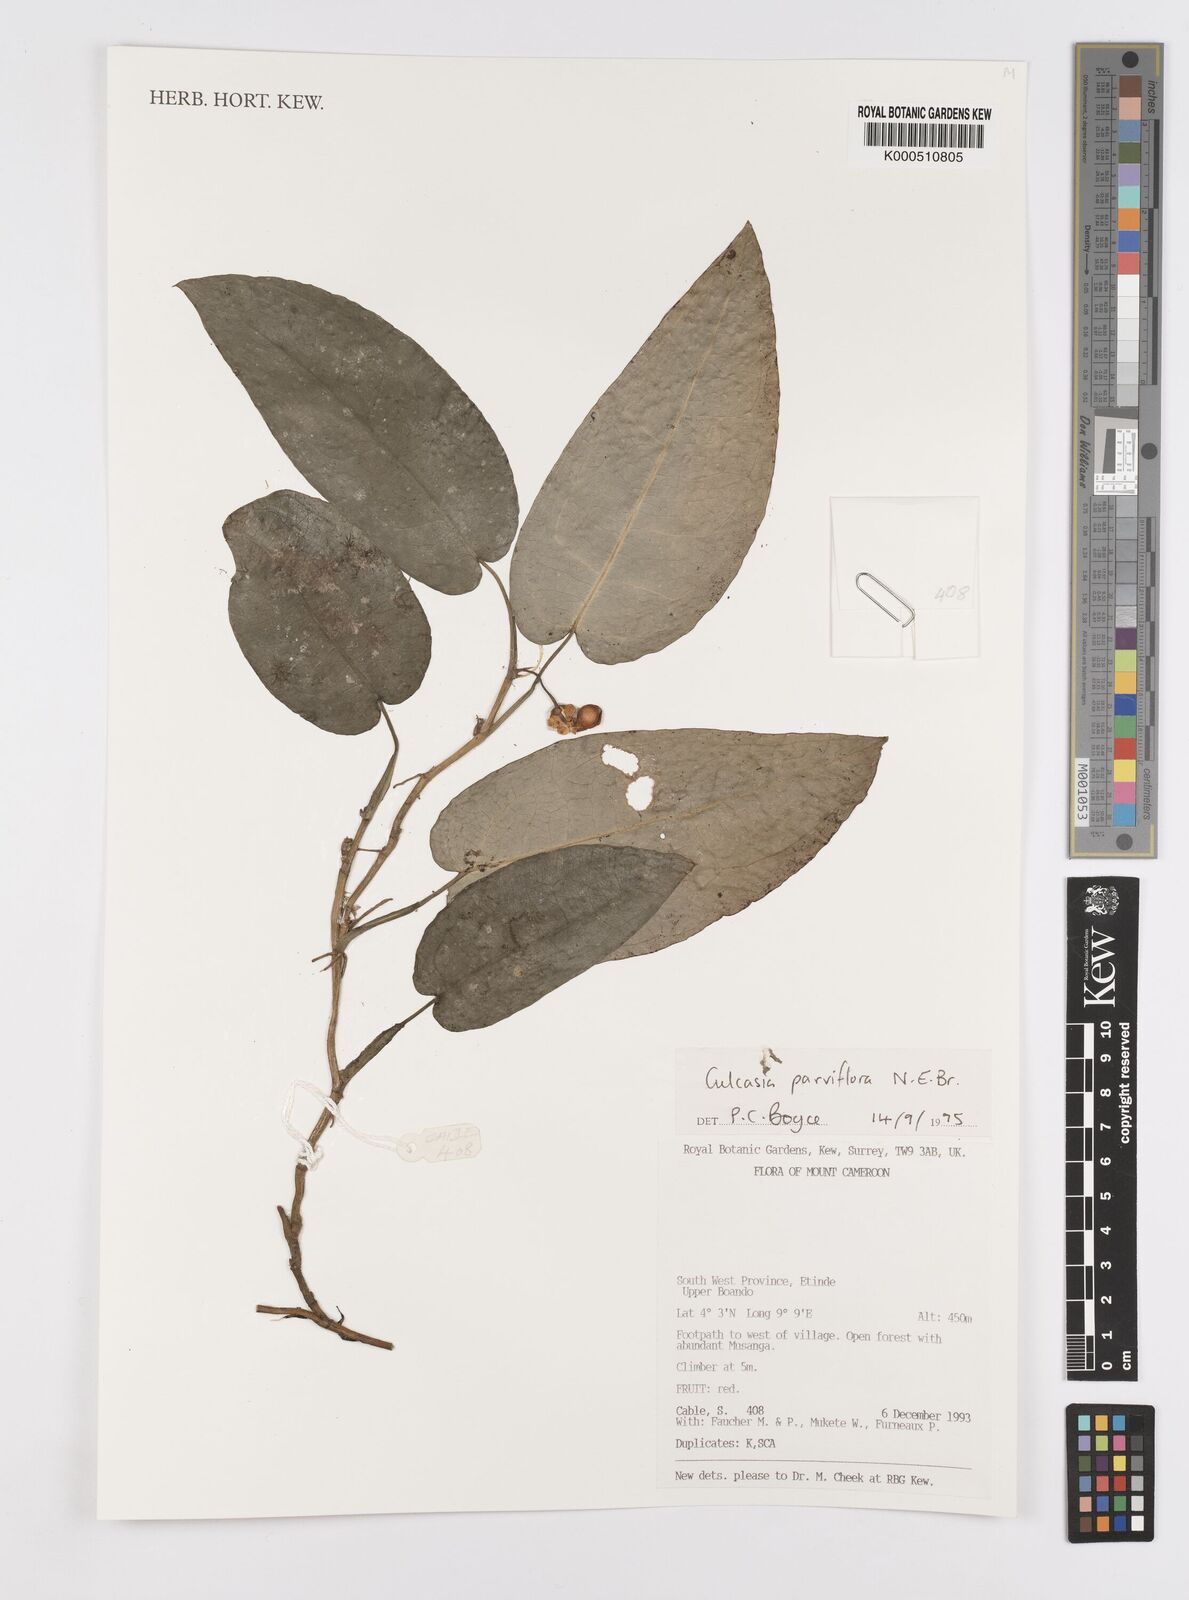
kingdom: Plantae
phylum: Tracheophyta
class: Liliopsida
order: Alismatales
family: Araceae
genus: Culcasia
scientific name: Culcasia parviflora
